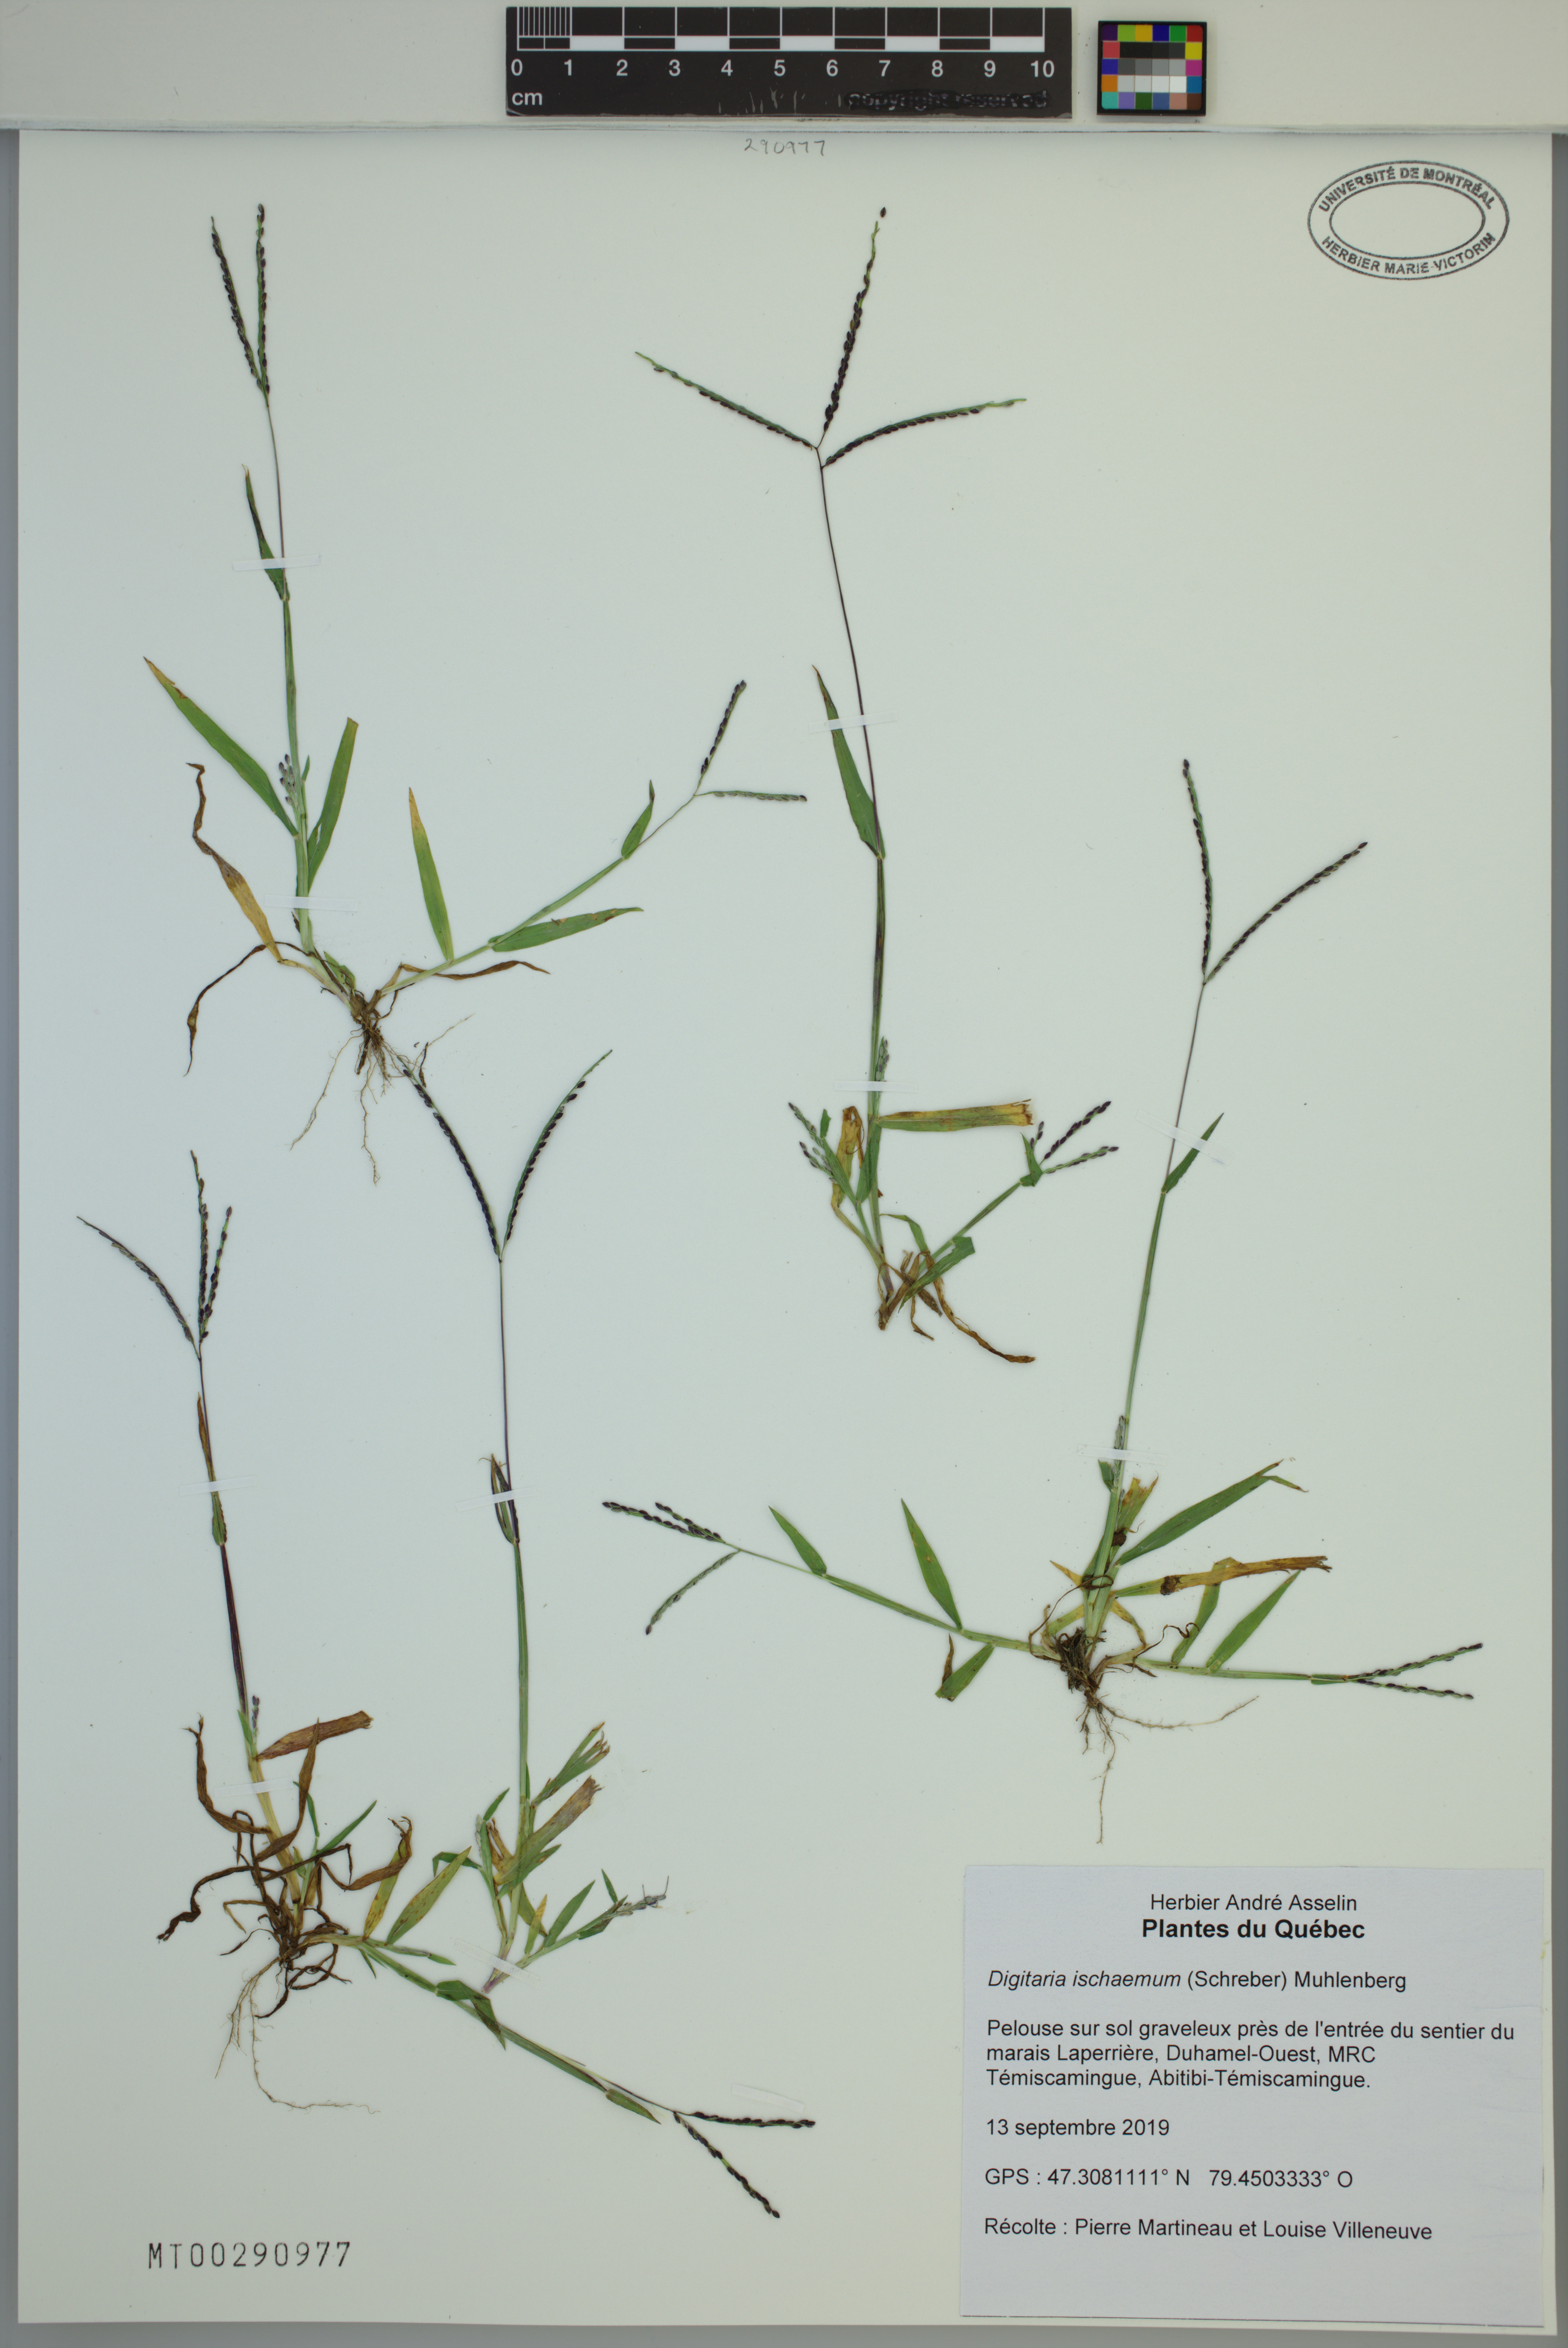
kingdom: Plantae
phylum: Tracheophyta
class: Liliopsida
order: Poales
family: Poaceae
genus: Digitaria
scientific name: Digitaria ischaemum
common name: Smooth crabgrass
